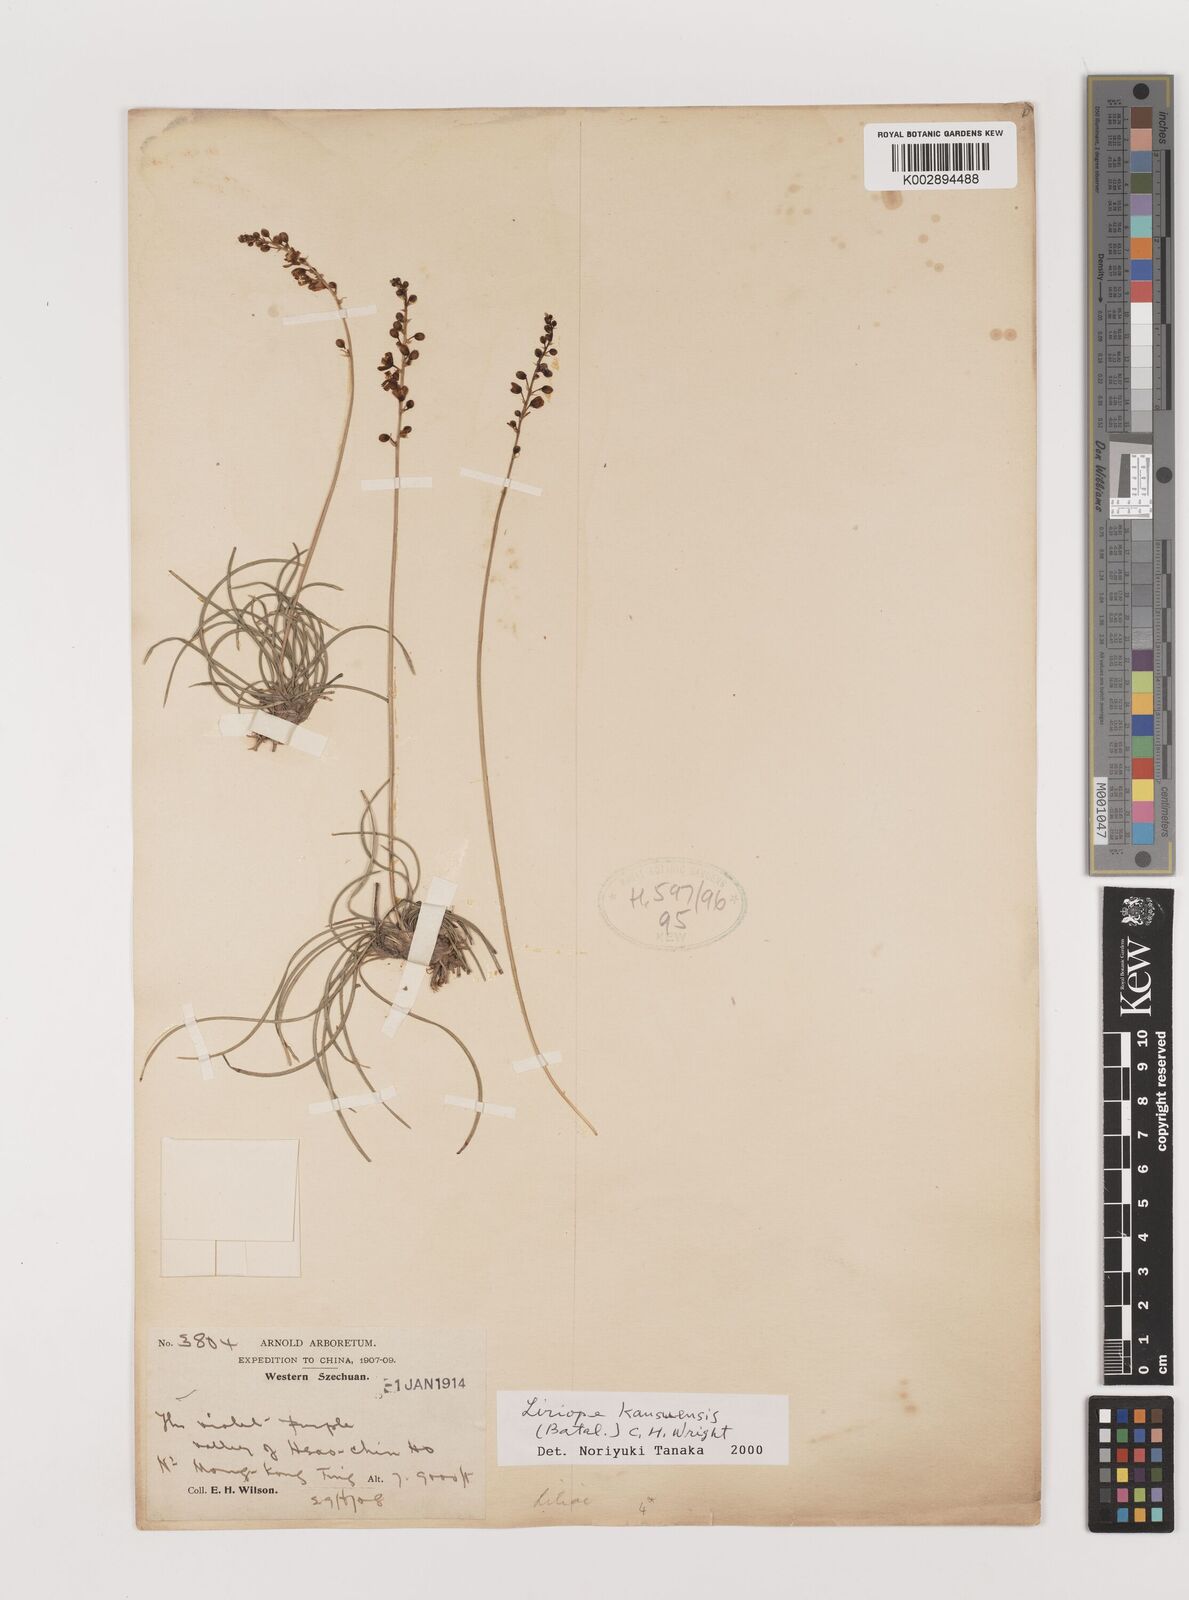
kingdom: Plantae
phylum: Tracheophyta
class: Liliopsida
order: Asparagales
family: Asparagaceae
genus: Liriope
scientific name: Liriope kansuensis
